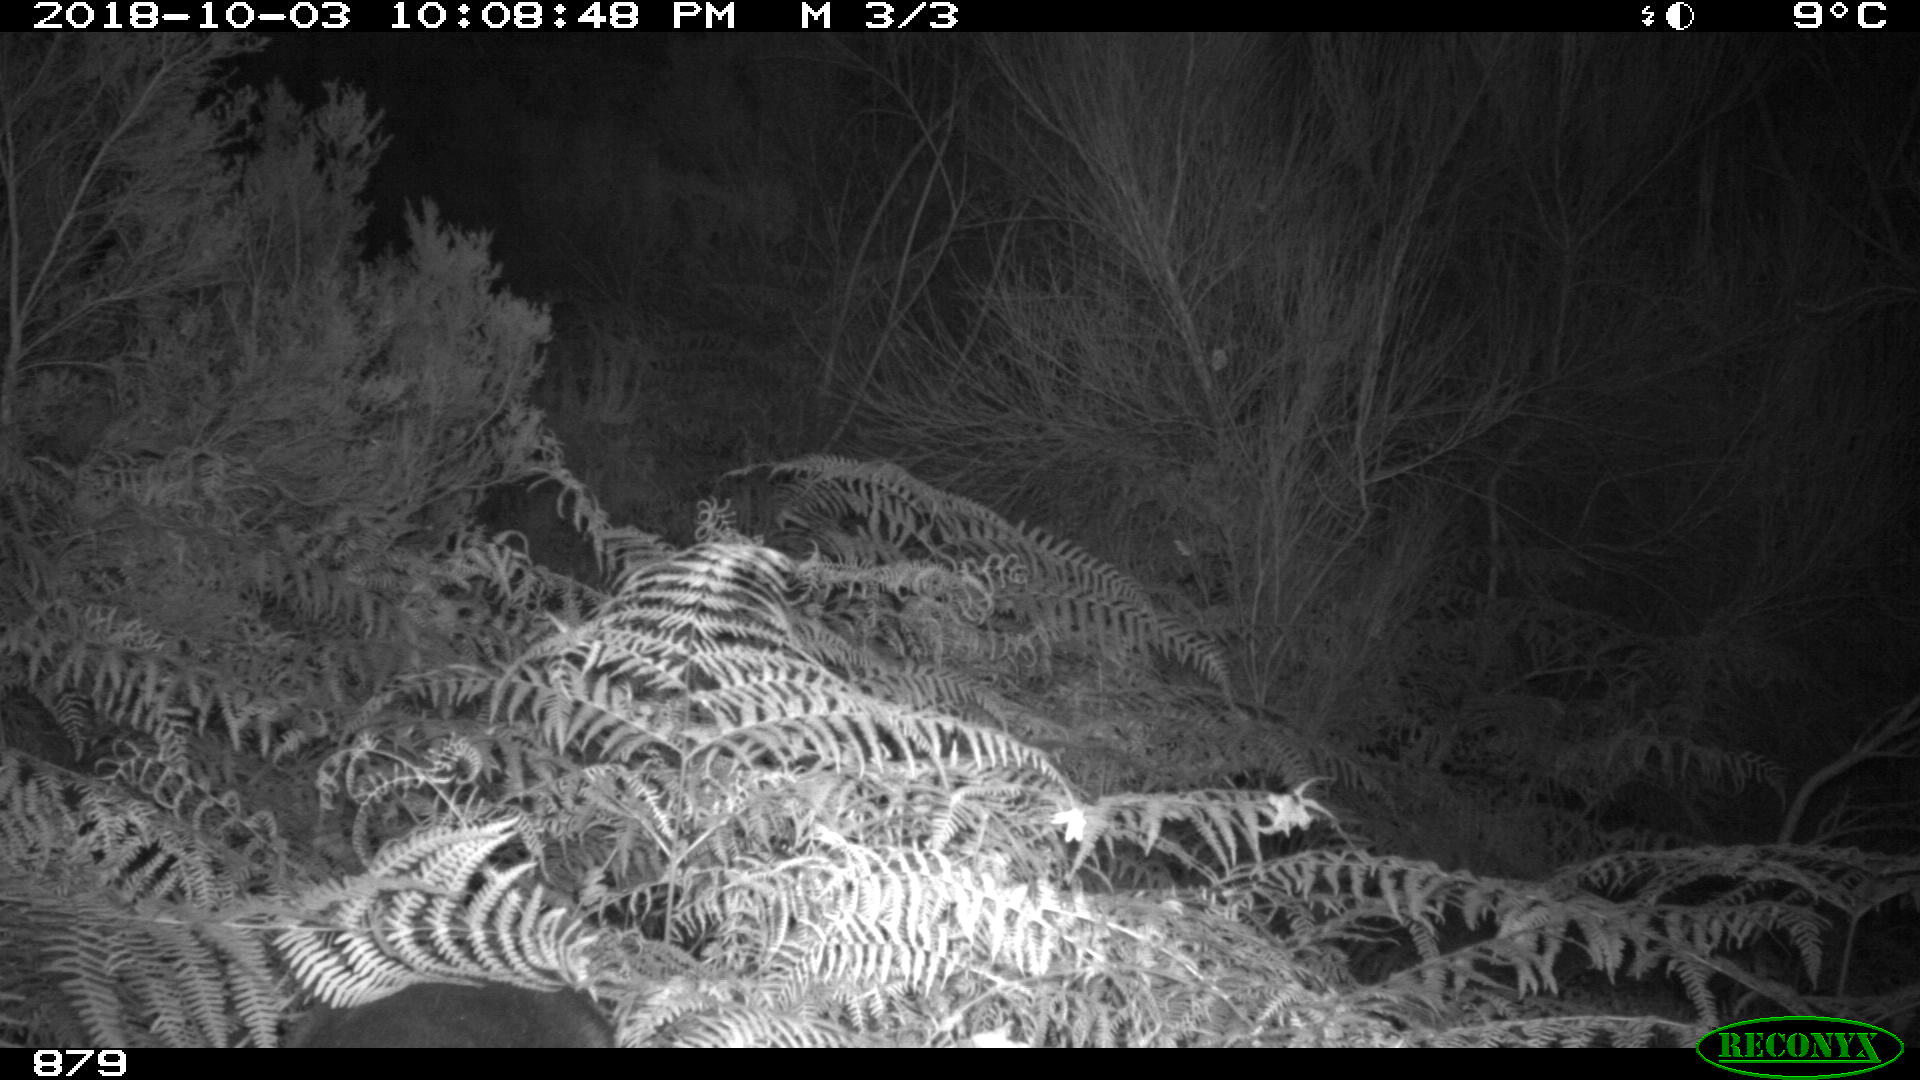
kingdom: Animalia
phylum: Chordata
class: Mammalia
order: Artiodactyla
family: Cervidae
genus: Capreolus
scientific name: Capreolus capreolus
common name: Western roe deer
